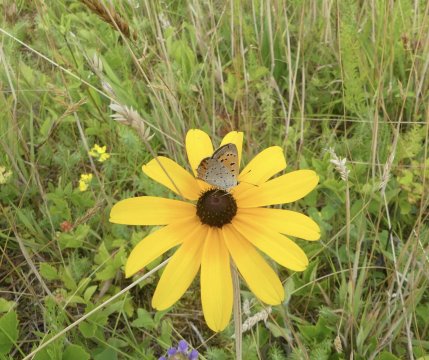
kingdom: Animalia
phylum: Arthropoda
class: Insecta
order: Lepidoptera
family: Lycaenidae
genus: Lycaena
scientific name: Lycaena phlaeas
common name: American Copper
